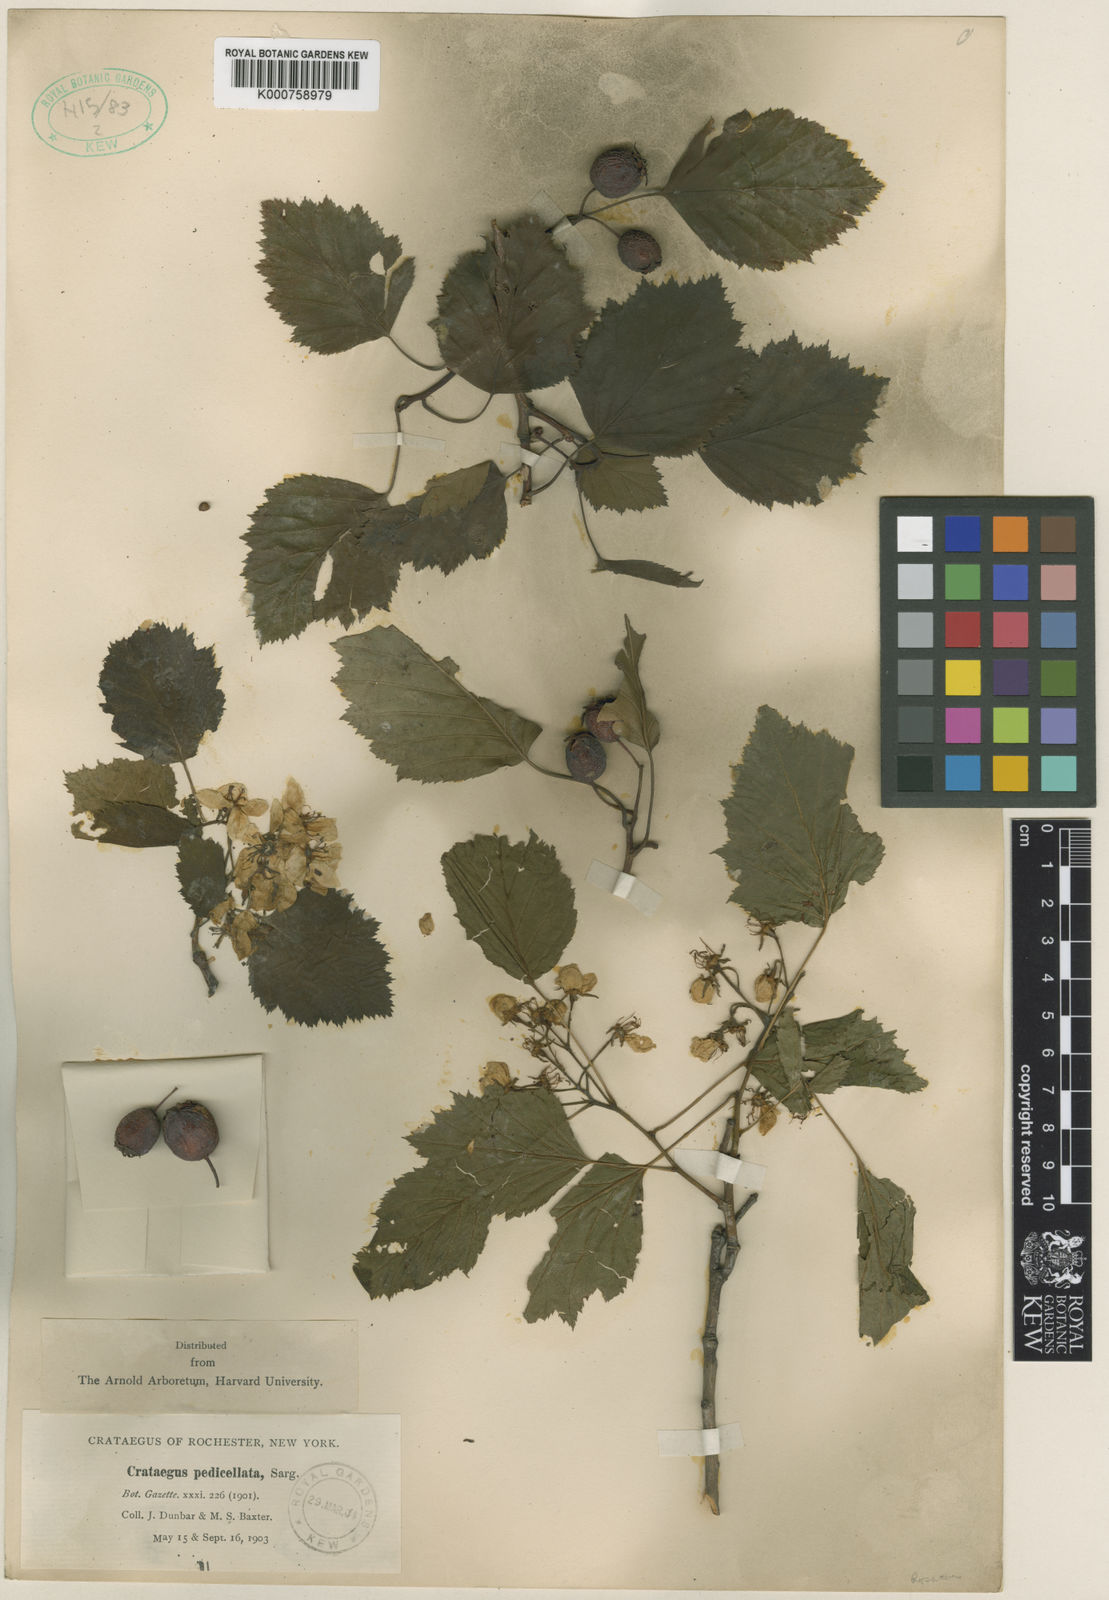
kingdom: Plantae
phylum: Tracheophyta
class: Magnoliopsida
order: Rosales
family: Rosaceae
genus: Crataegus
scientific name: Crataegus coccinea
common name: Scarlet hawthorn
